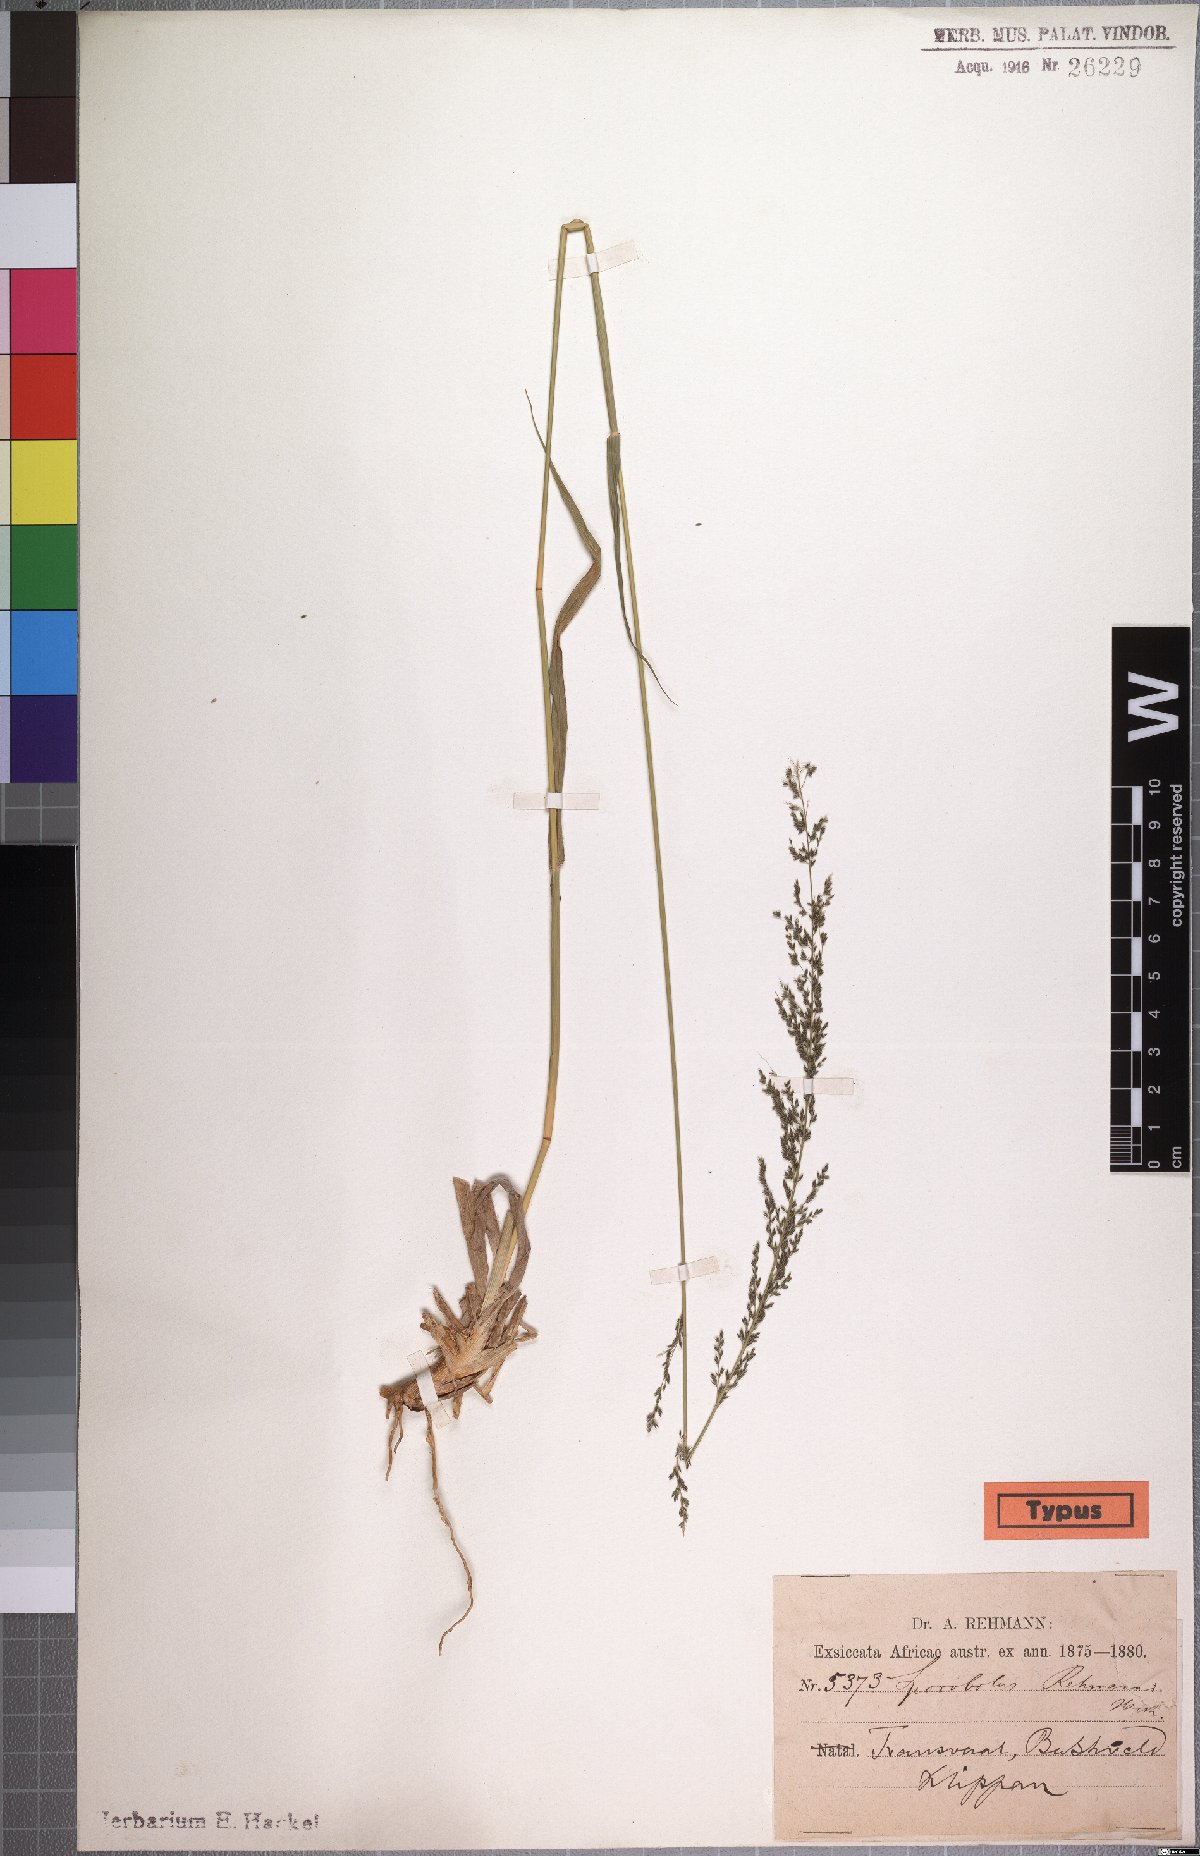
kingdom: Plantae
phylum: Tracheophyta
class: Liliopsida
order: Poales
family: Poaceae
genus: Sporobolus
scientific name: Sporobolus fimbriatus
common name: Fringed dropseed
